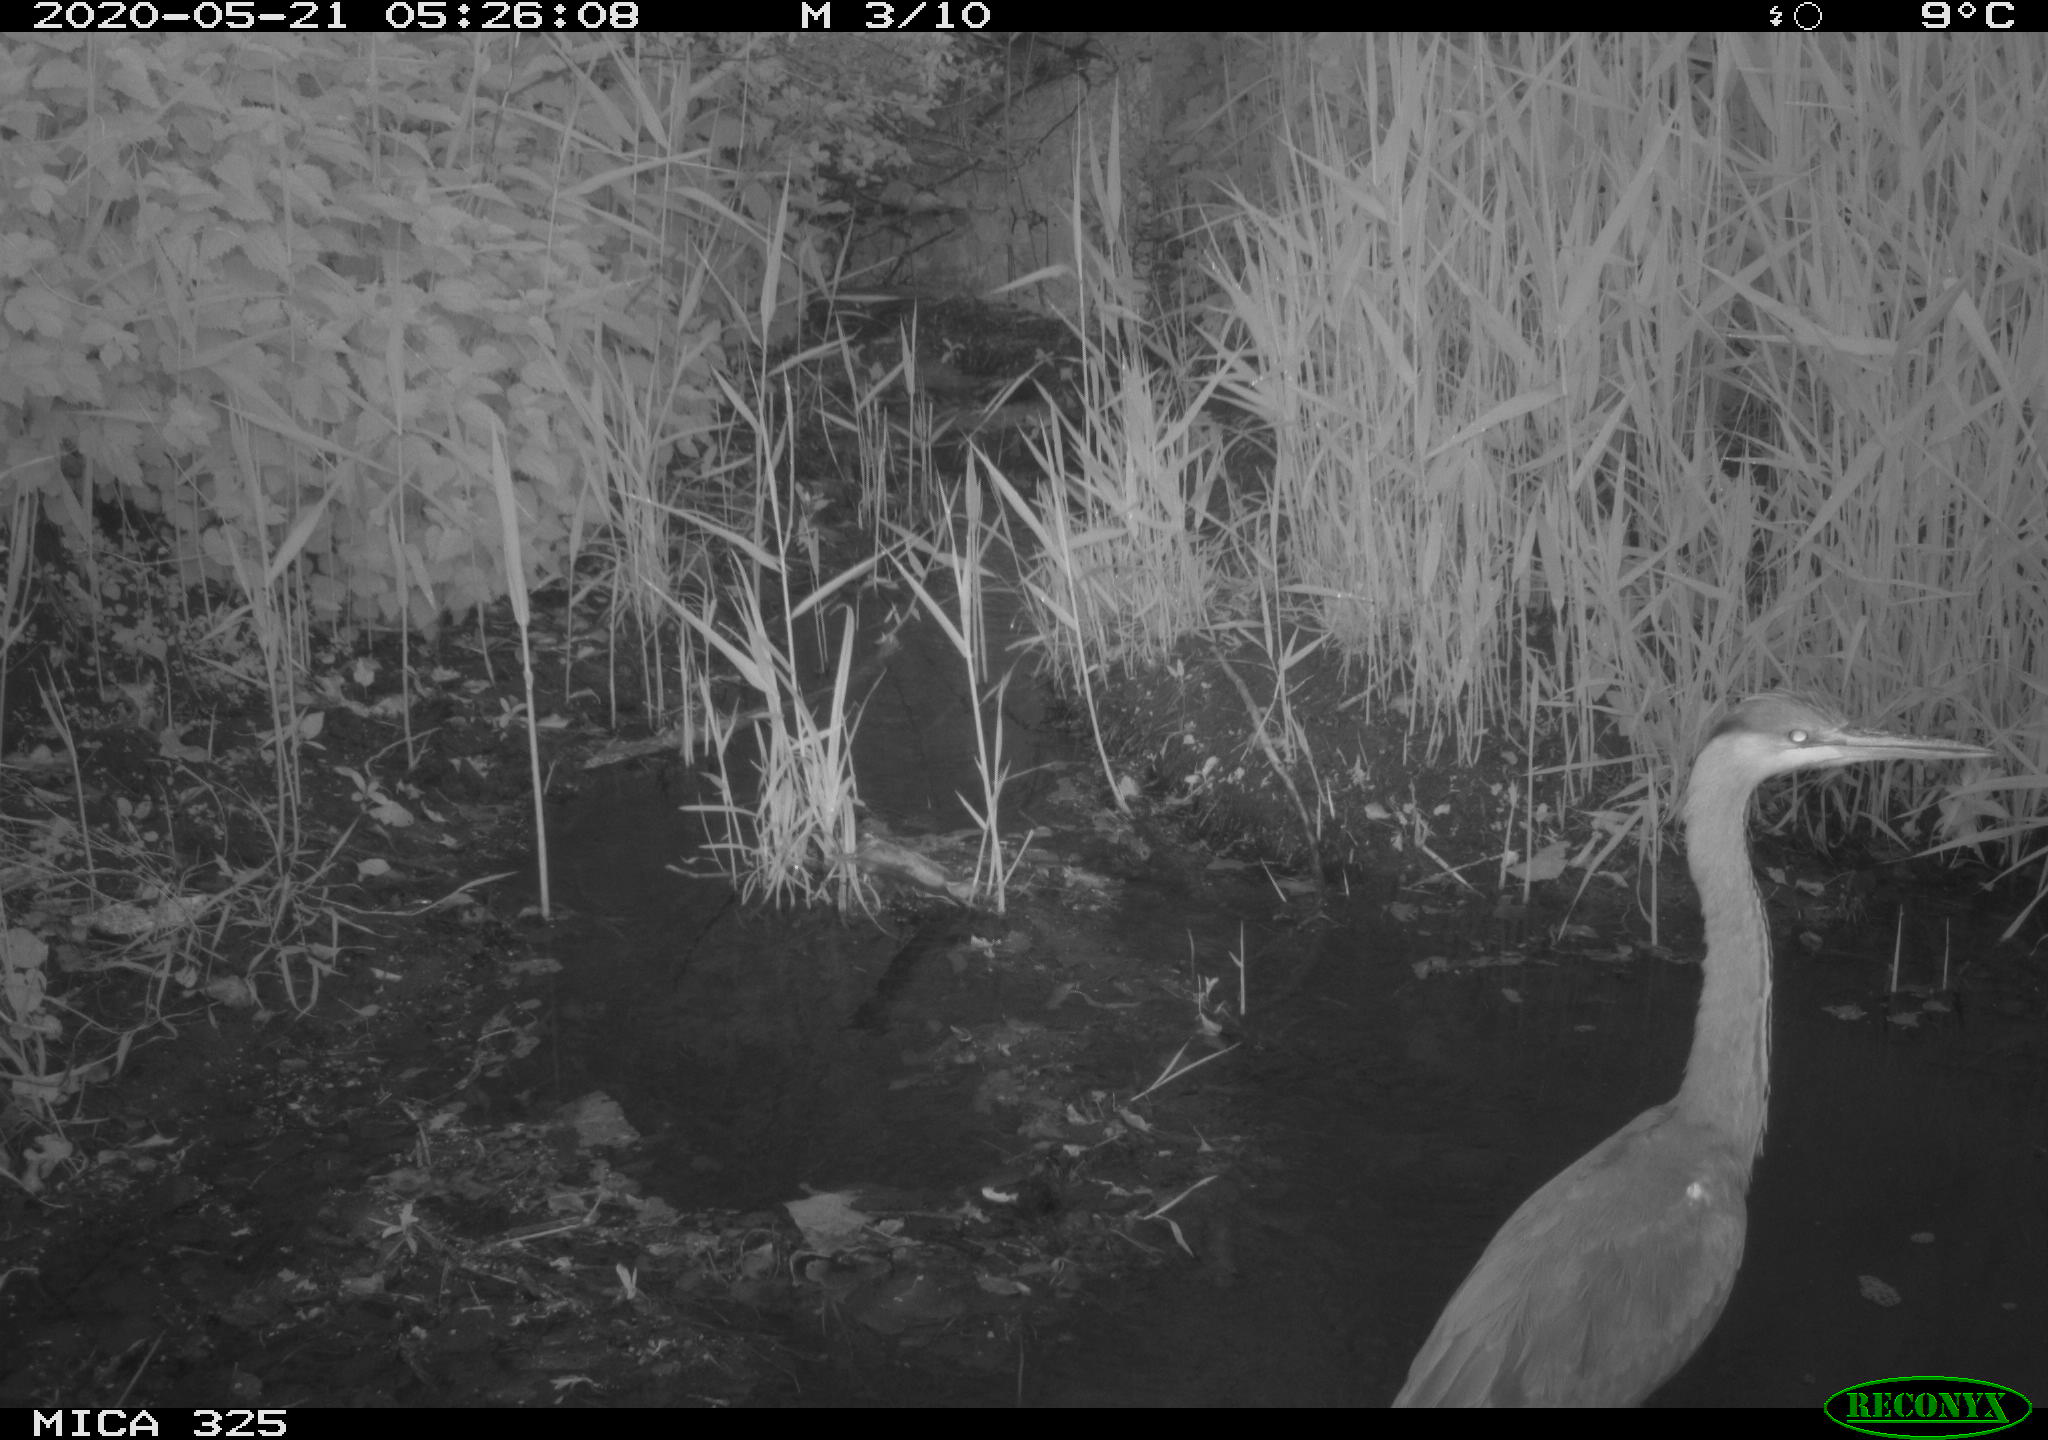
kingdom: Animalia
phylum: Chordata
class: Aves
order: Pelecaniformes
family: Ardeidae
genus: Ardea
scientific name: Ardea cinerea
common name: Grey heron
